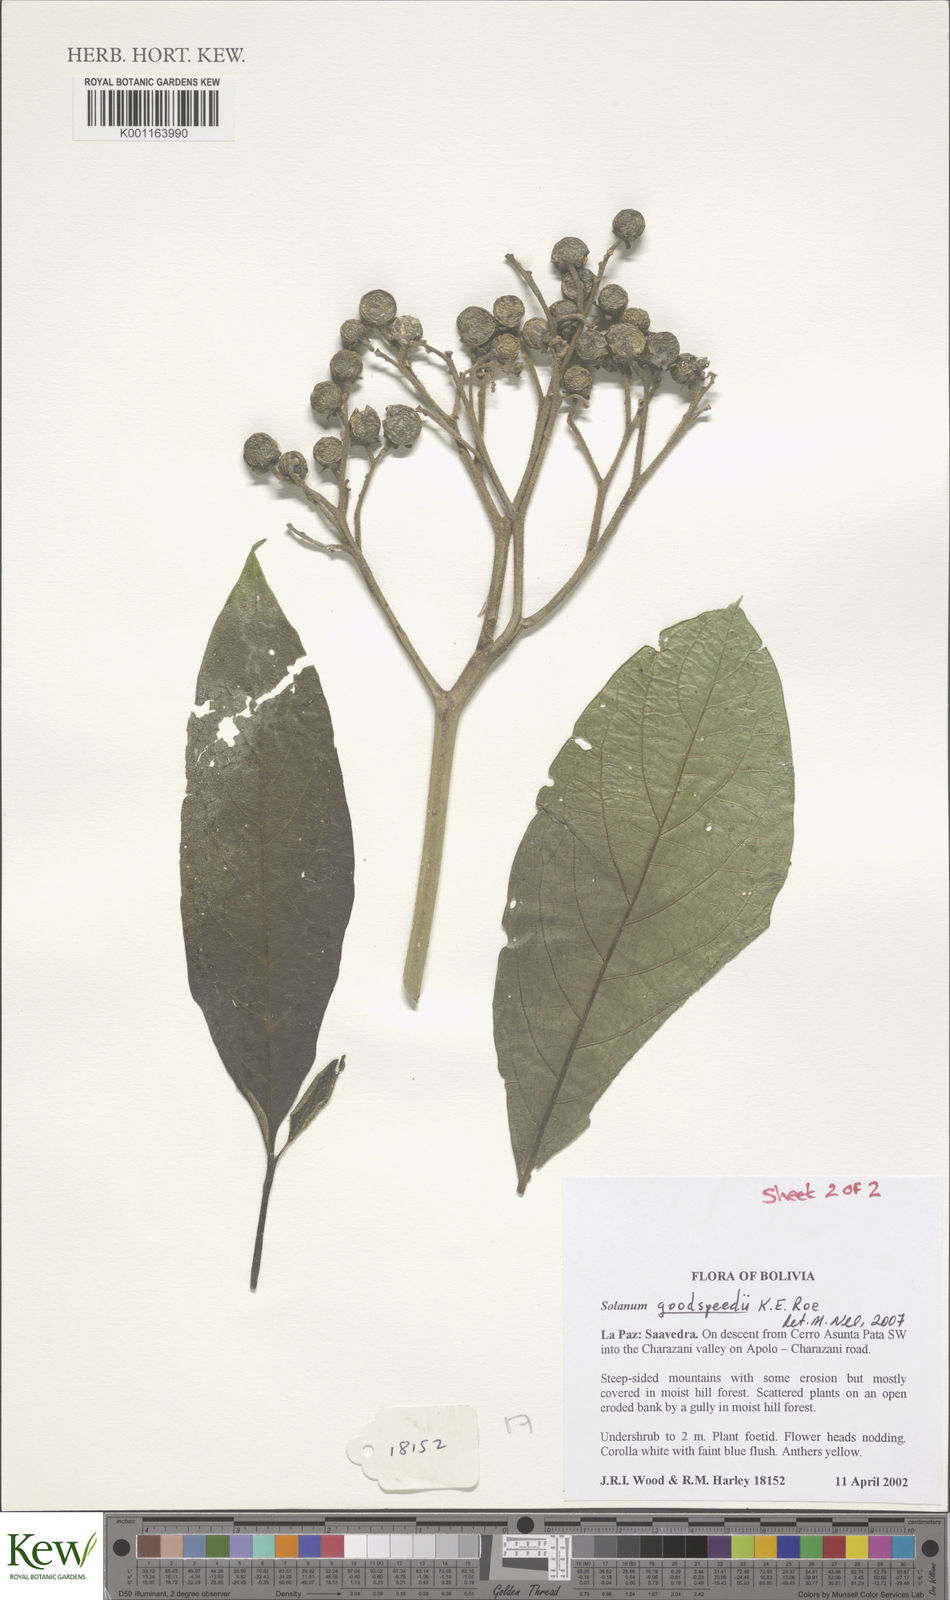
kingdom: Plantae
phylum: Tracheophyta
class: Magnoliopsida
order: Solanales
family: Solanaceae
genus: Solanum
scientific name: Solanum goodspeedii
